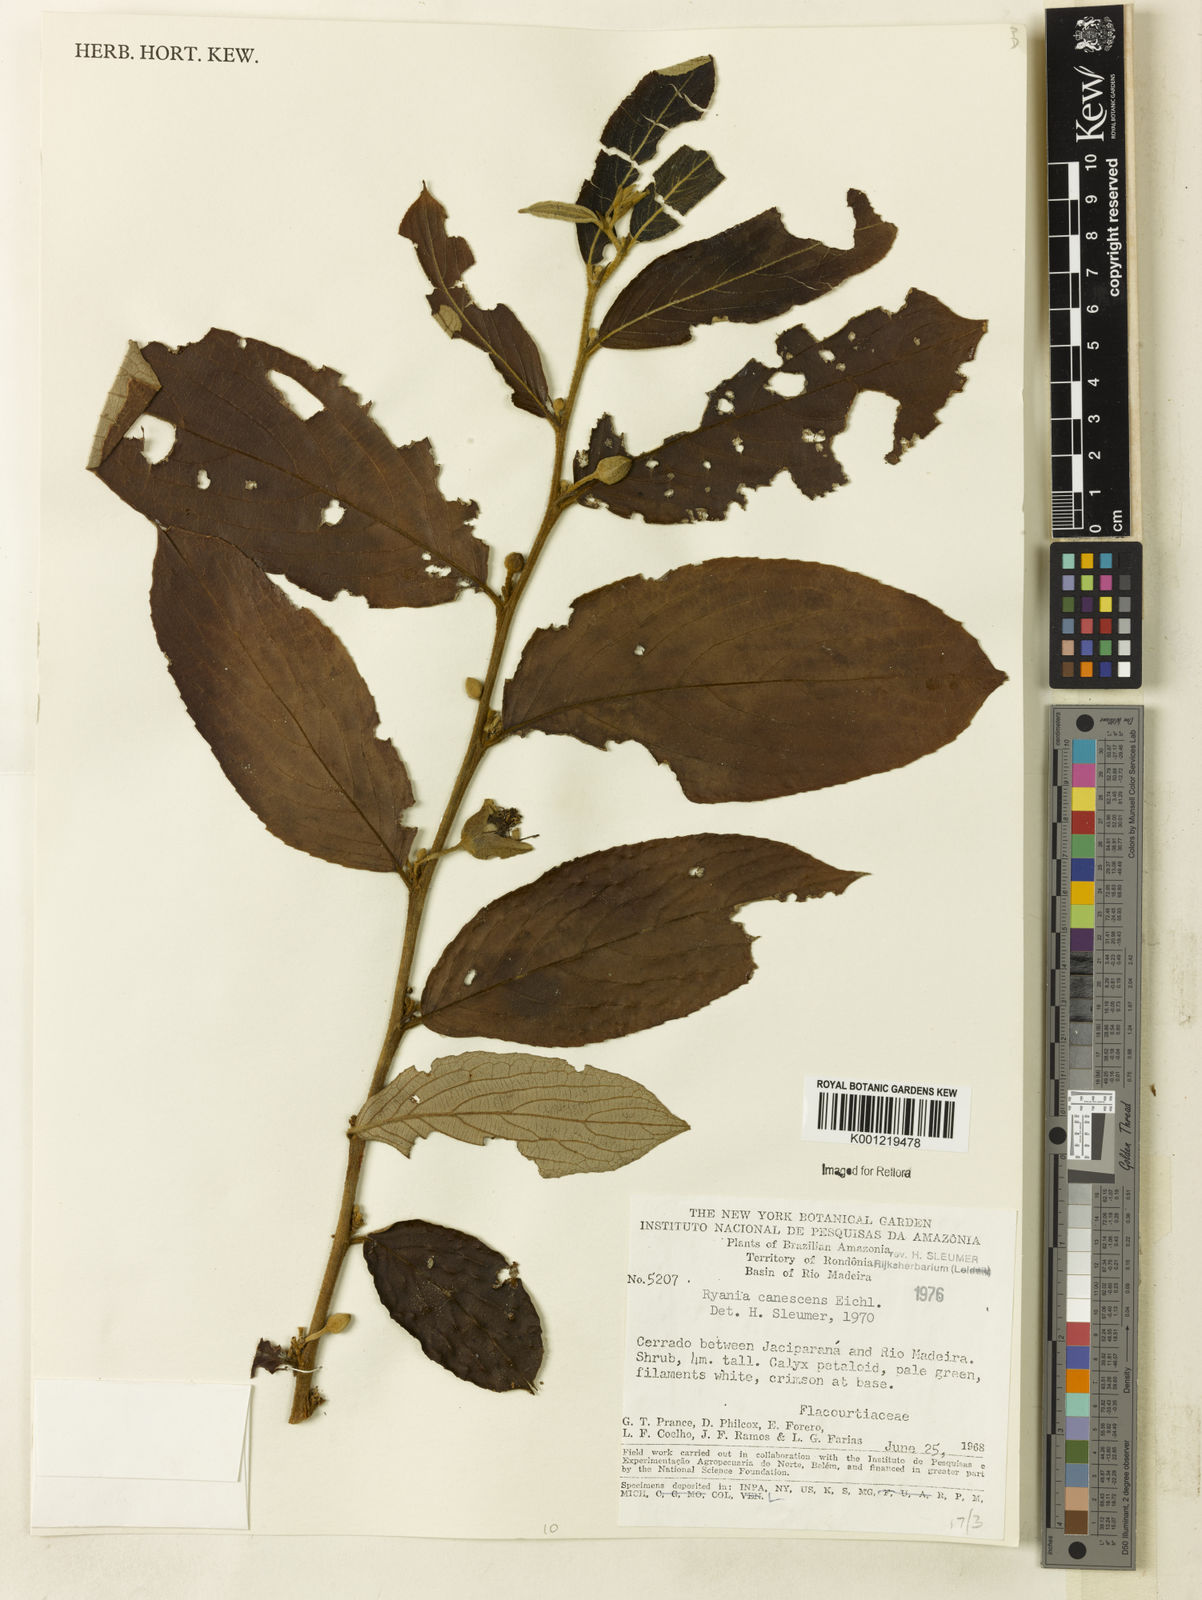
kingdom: Plantae
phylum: Tracheophyta
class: Magnoliopsida
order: Malpighiales
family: Salicaceae
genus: Ryania
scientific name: Ryania canescens
